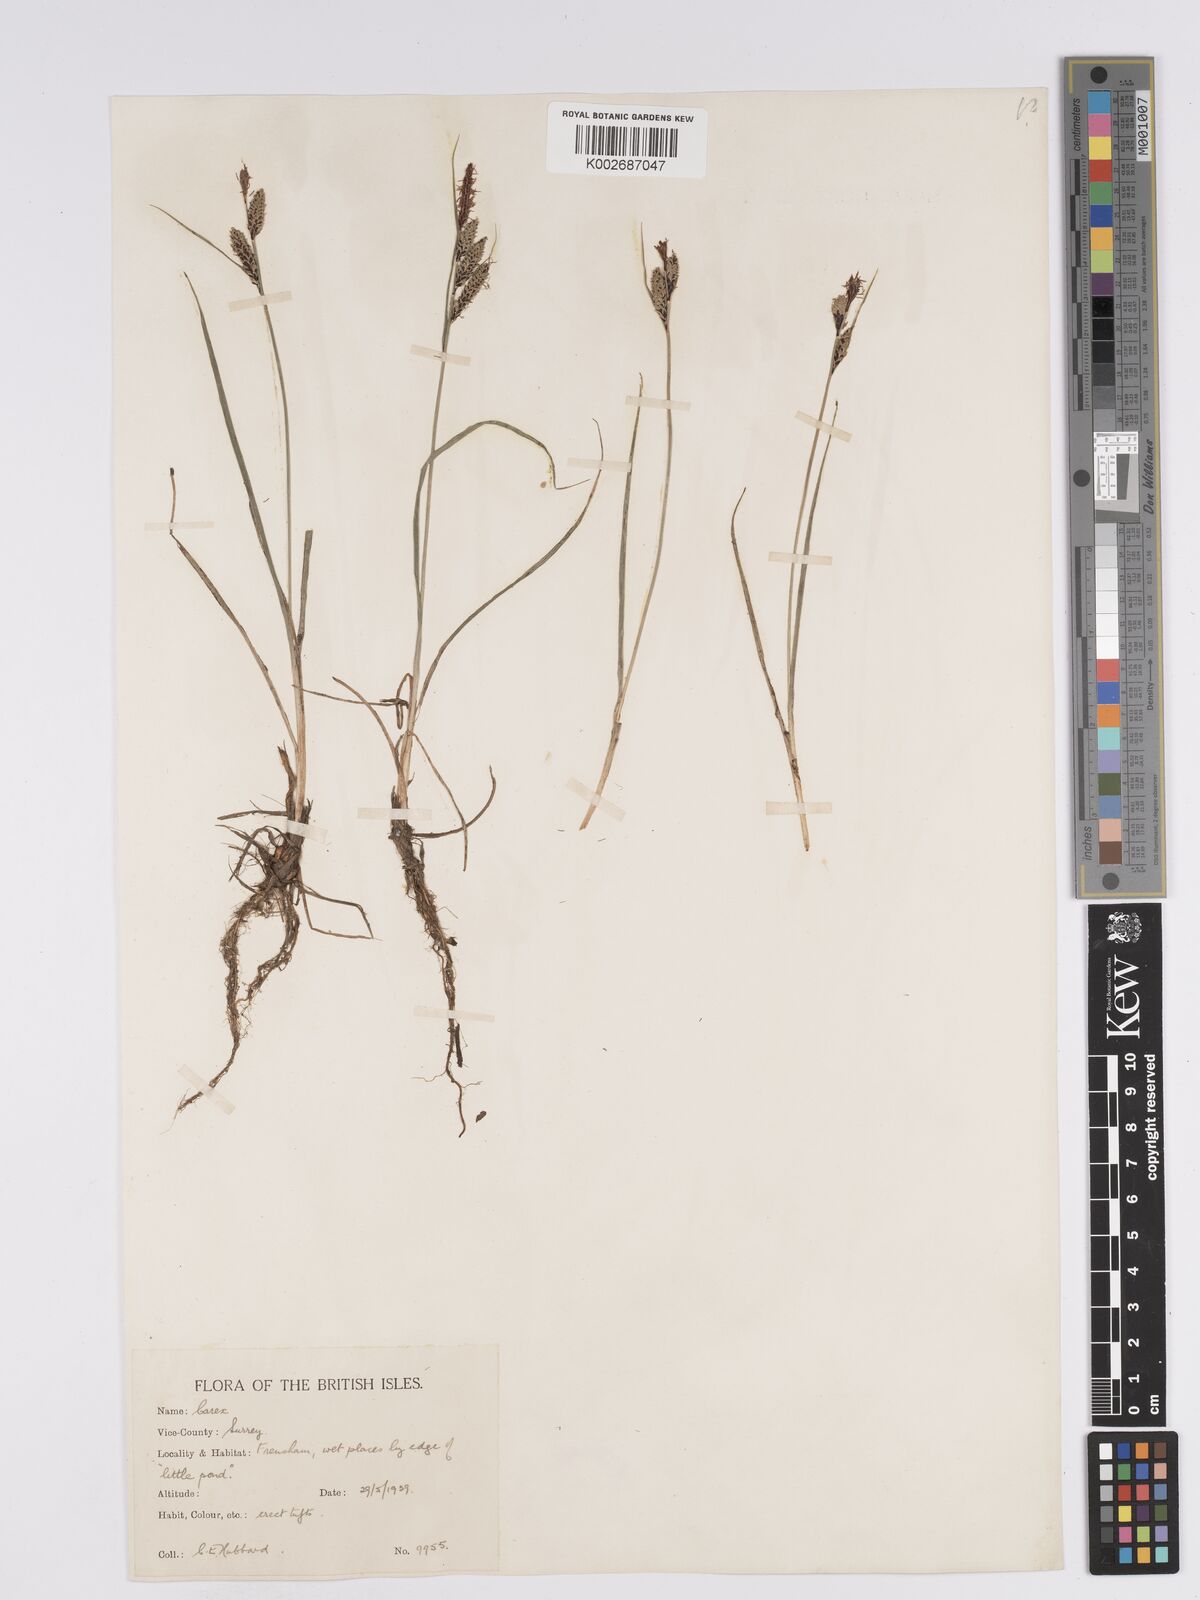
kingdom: Plantae
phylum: Tracheophyta
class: Liliopsida
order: Poales
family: Cyperaceae
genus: Carex
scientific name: Carex nigra
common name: Common sedge
